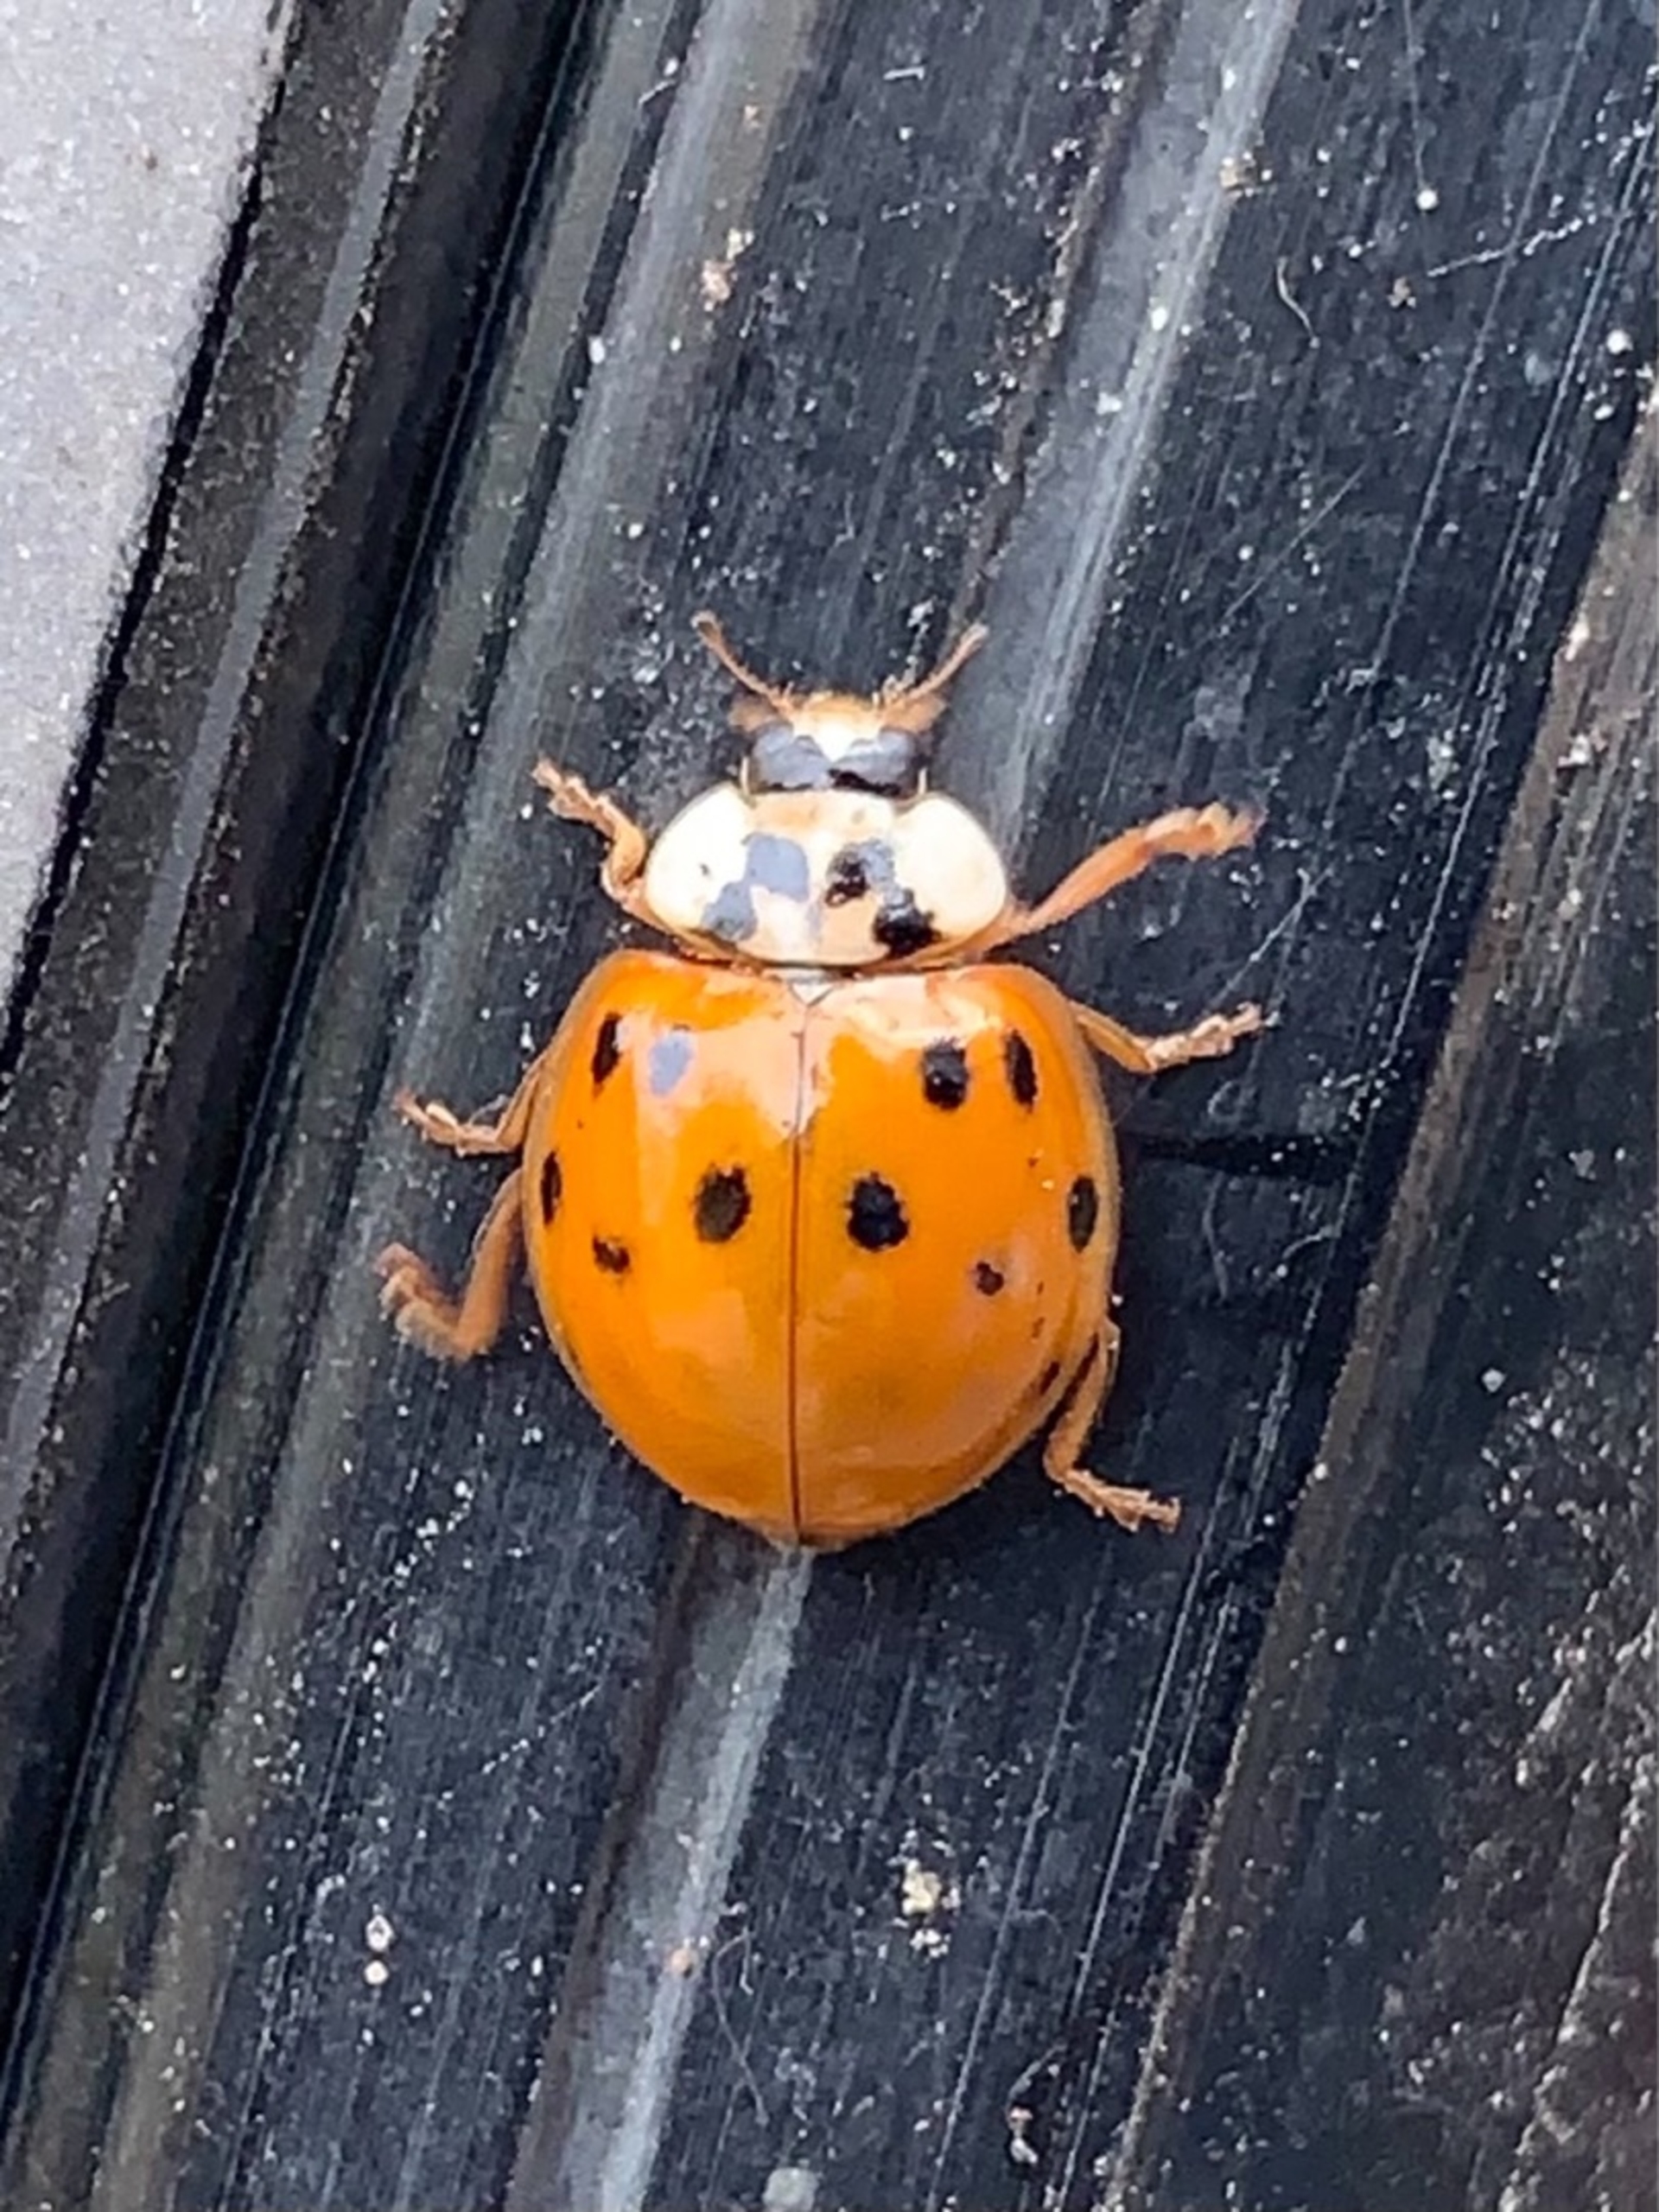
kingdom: Animalia
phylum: Arthropoda
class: Insecta
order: Coleoptera
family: Coccinellidae
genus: Adalia
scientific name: Adalia decempunctata
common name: Tiplettet mariehøne
